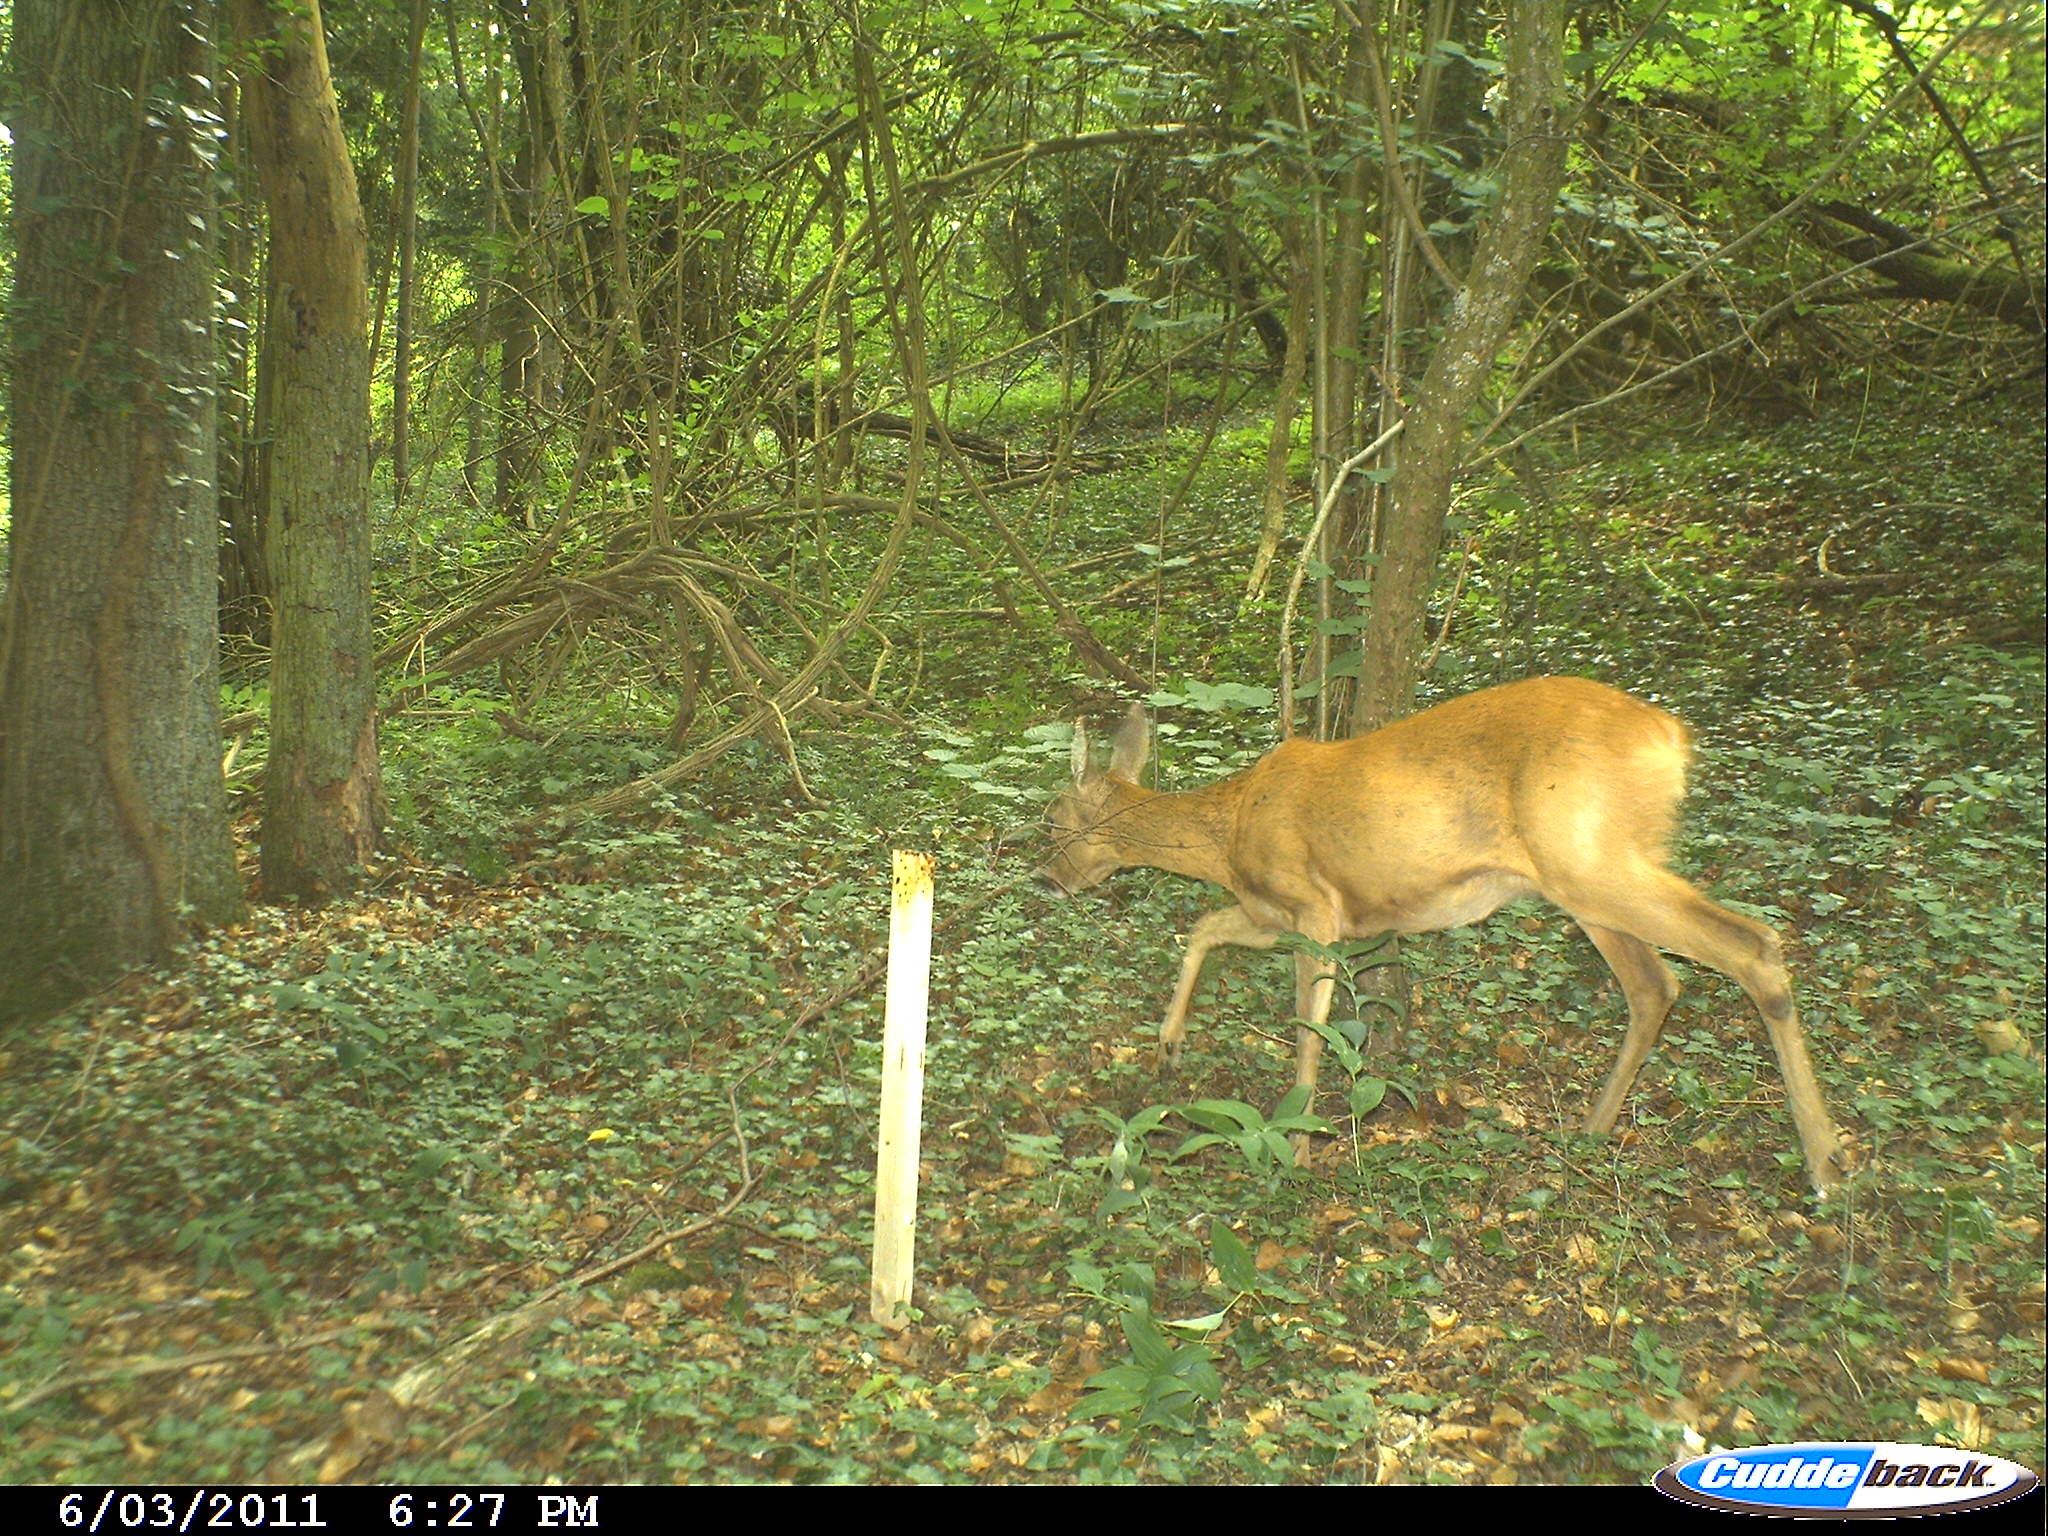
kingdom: Animalia
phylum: Chordata
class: Mammalia
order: Artiodactyla
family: Cervidae
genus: Capreolus
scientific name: Capreolus capreolus
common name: Western roe deer
